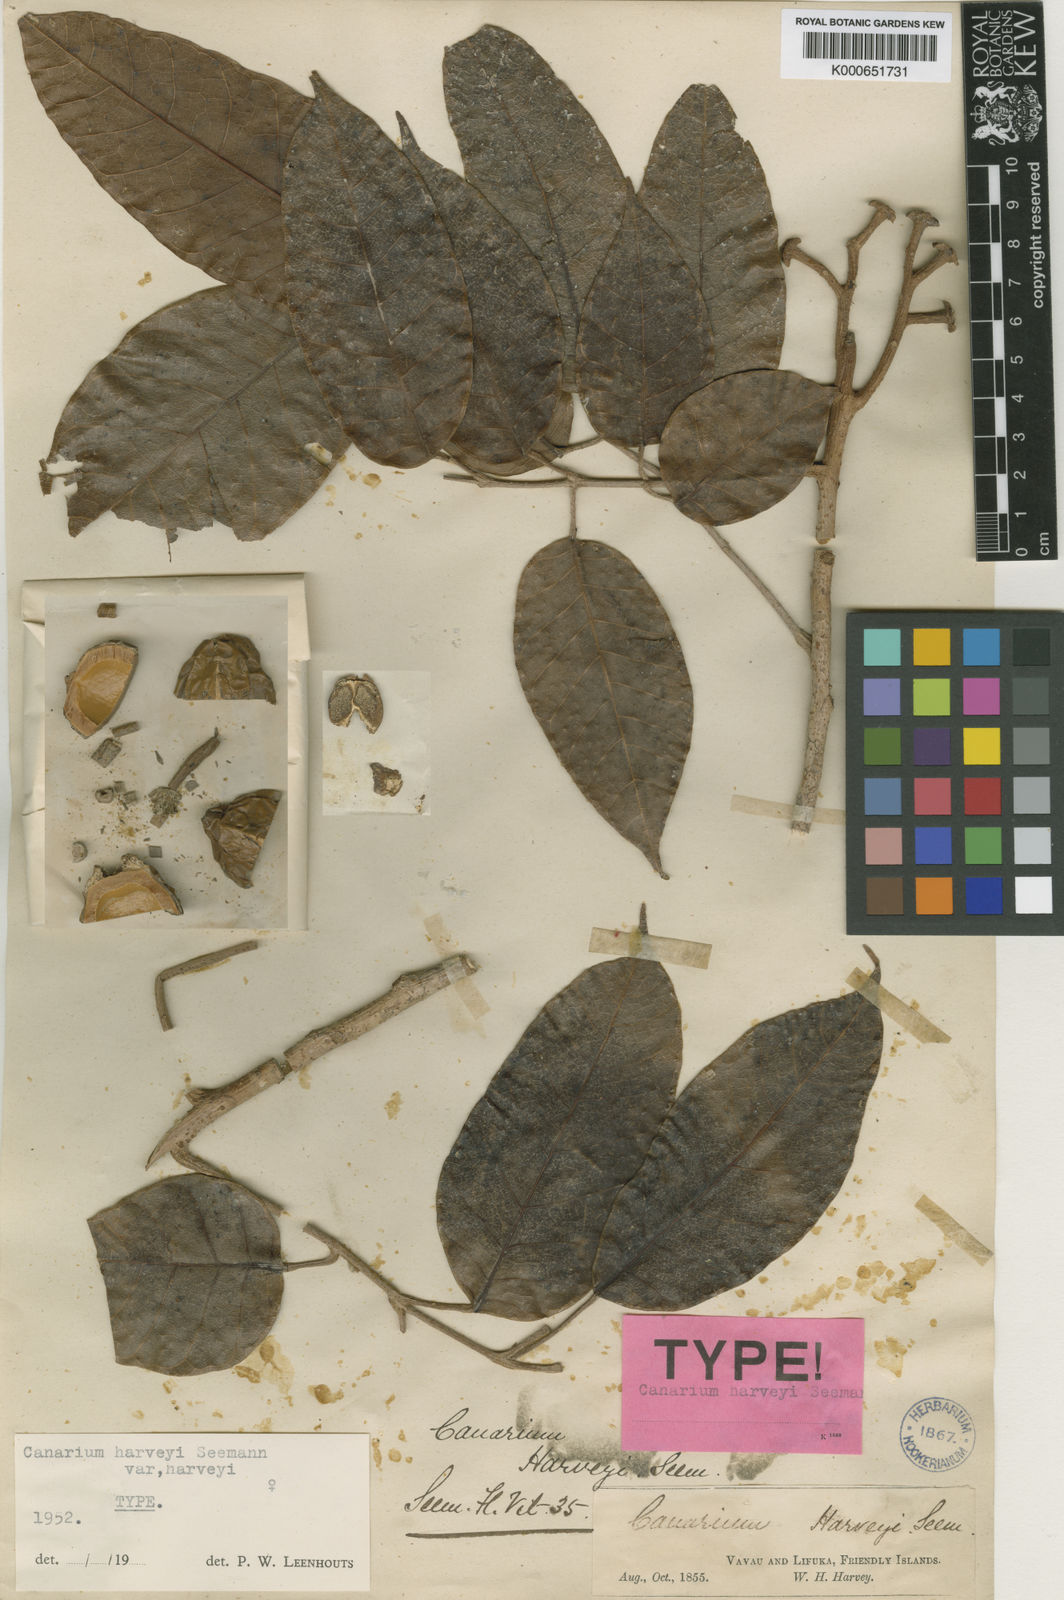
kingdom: Plantae
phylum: Tracheophyta
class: Magnoliopsida
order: Sapindales
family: Burseraceae
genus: Canarium
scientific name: Canarium harveyi
